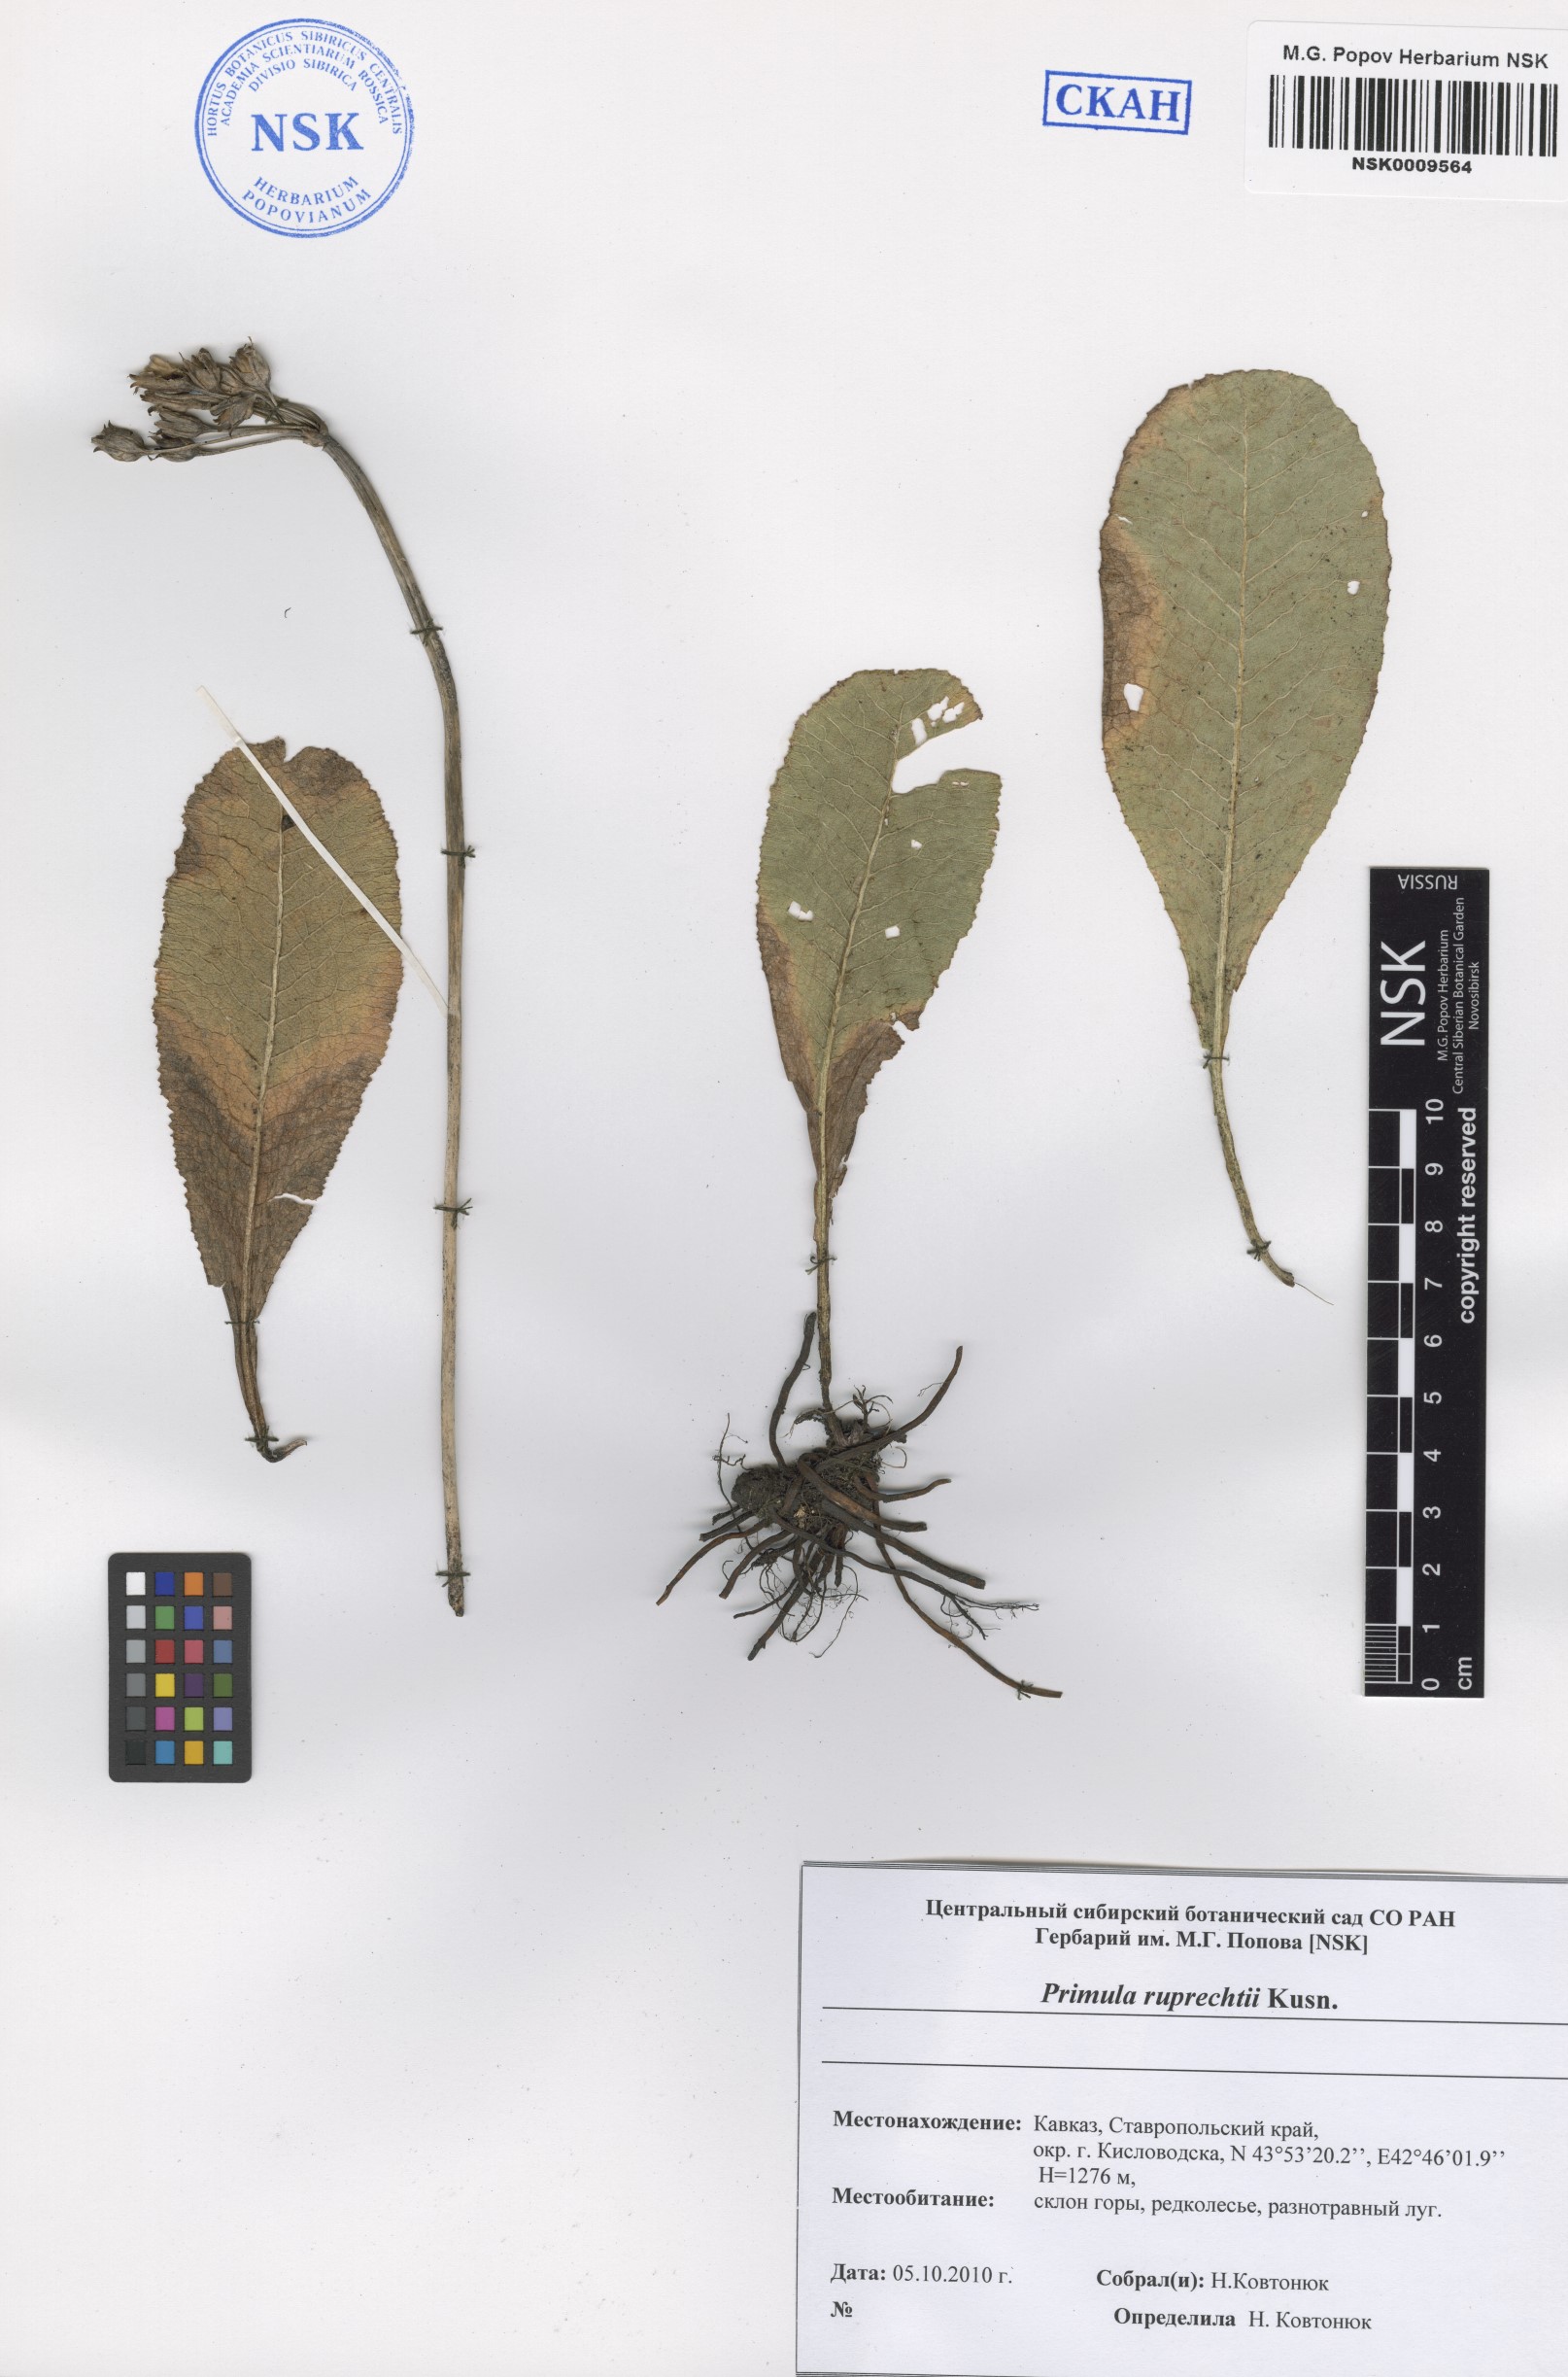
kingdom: Plantae
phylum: Tracheophyta
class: Magnoliopsida
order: Ericales
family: Primulaceae
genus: Primula
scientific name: Primula ruprechtii
